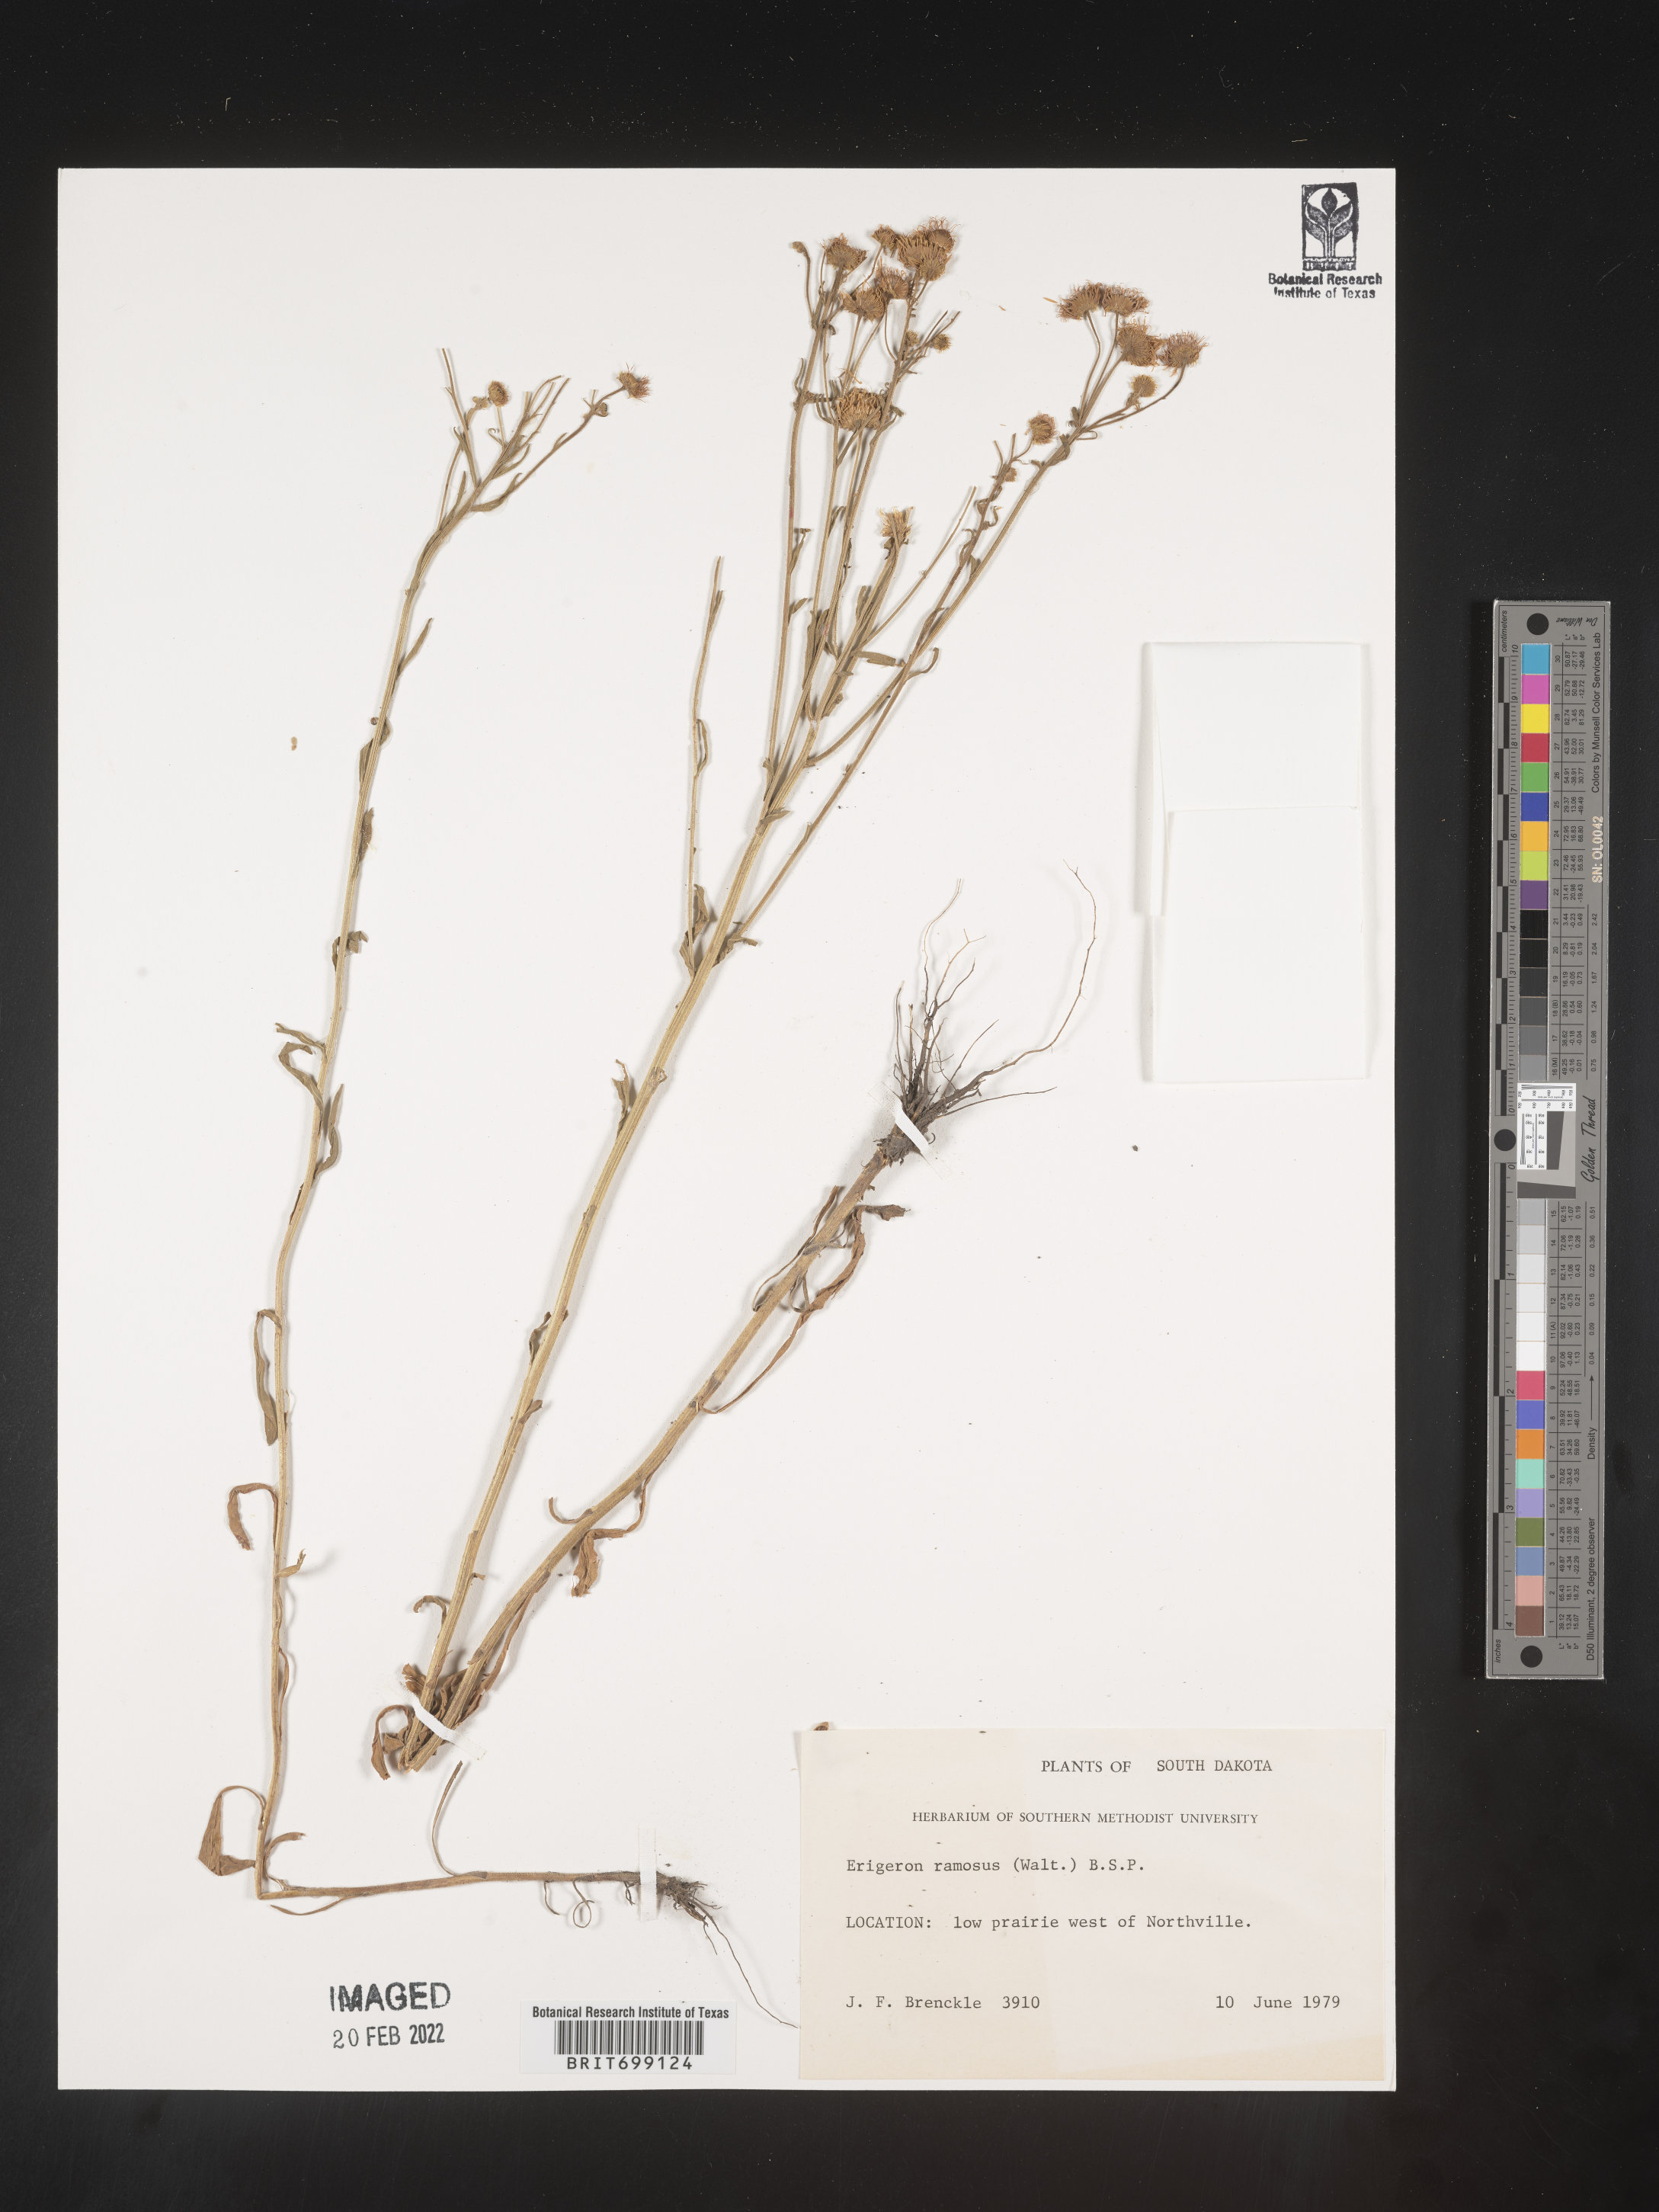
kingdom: Plantae
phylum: Tracheophyta
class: Magnoliopsida
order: Asterales
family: Asteraceae
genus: Erigeron
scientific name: Erigeron strigosus
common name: Common eastern fleabane
